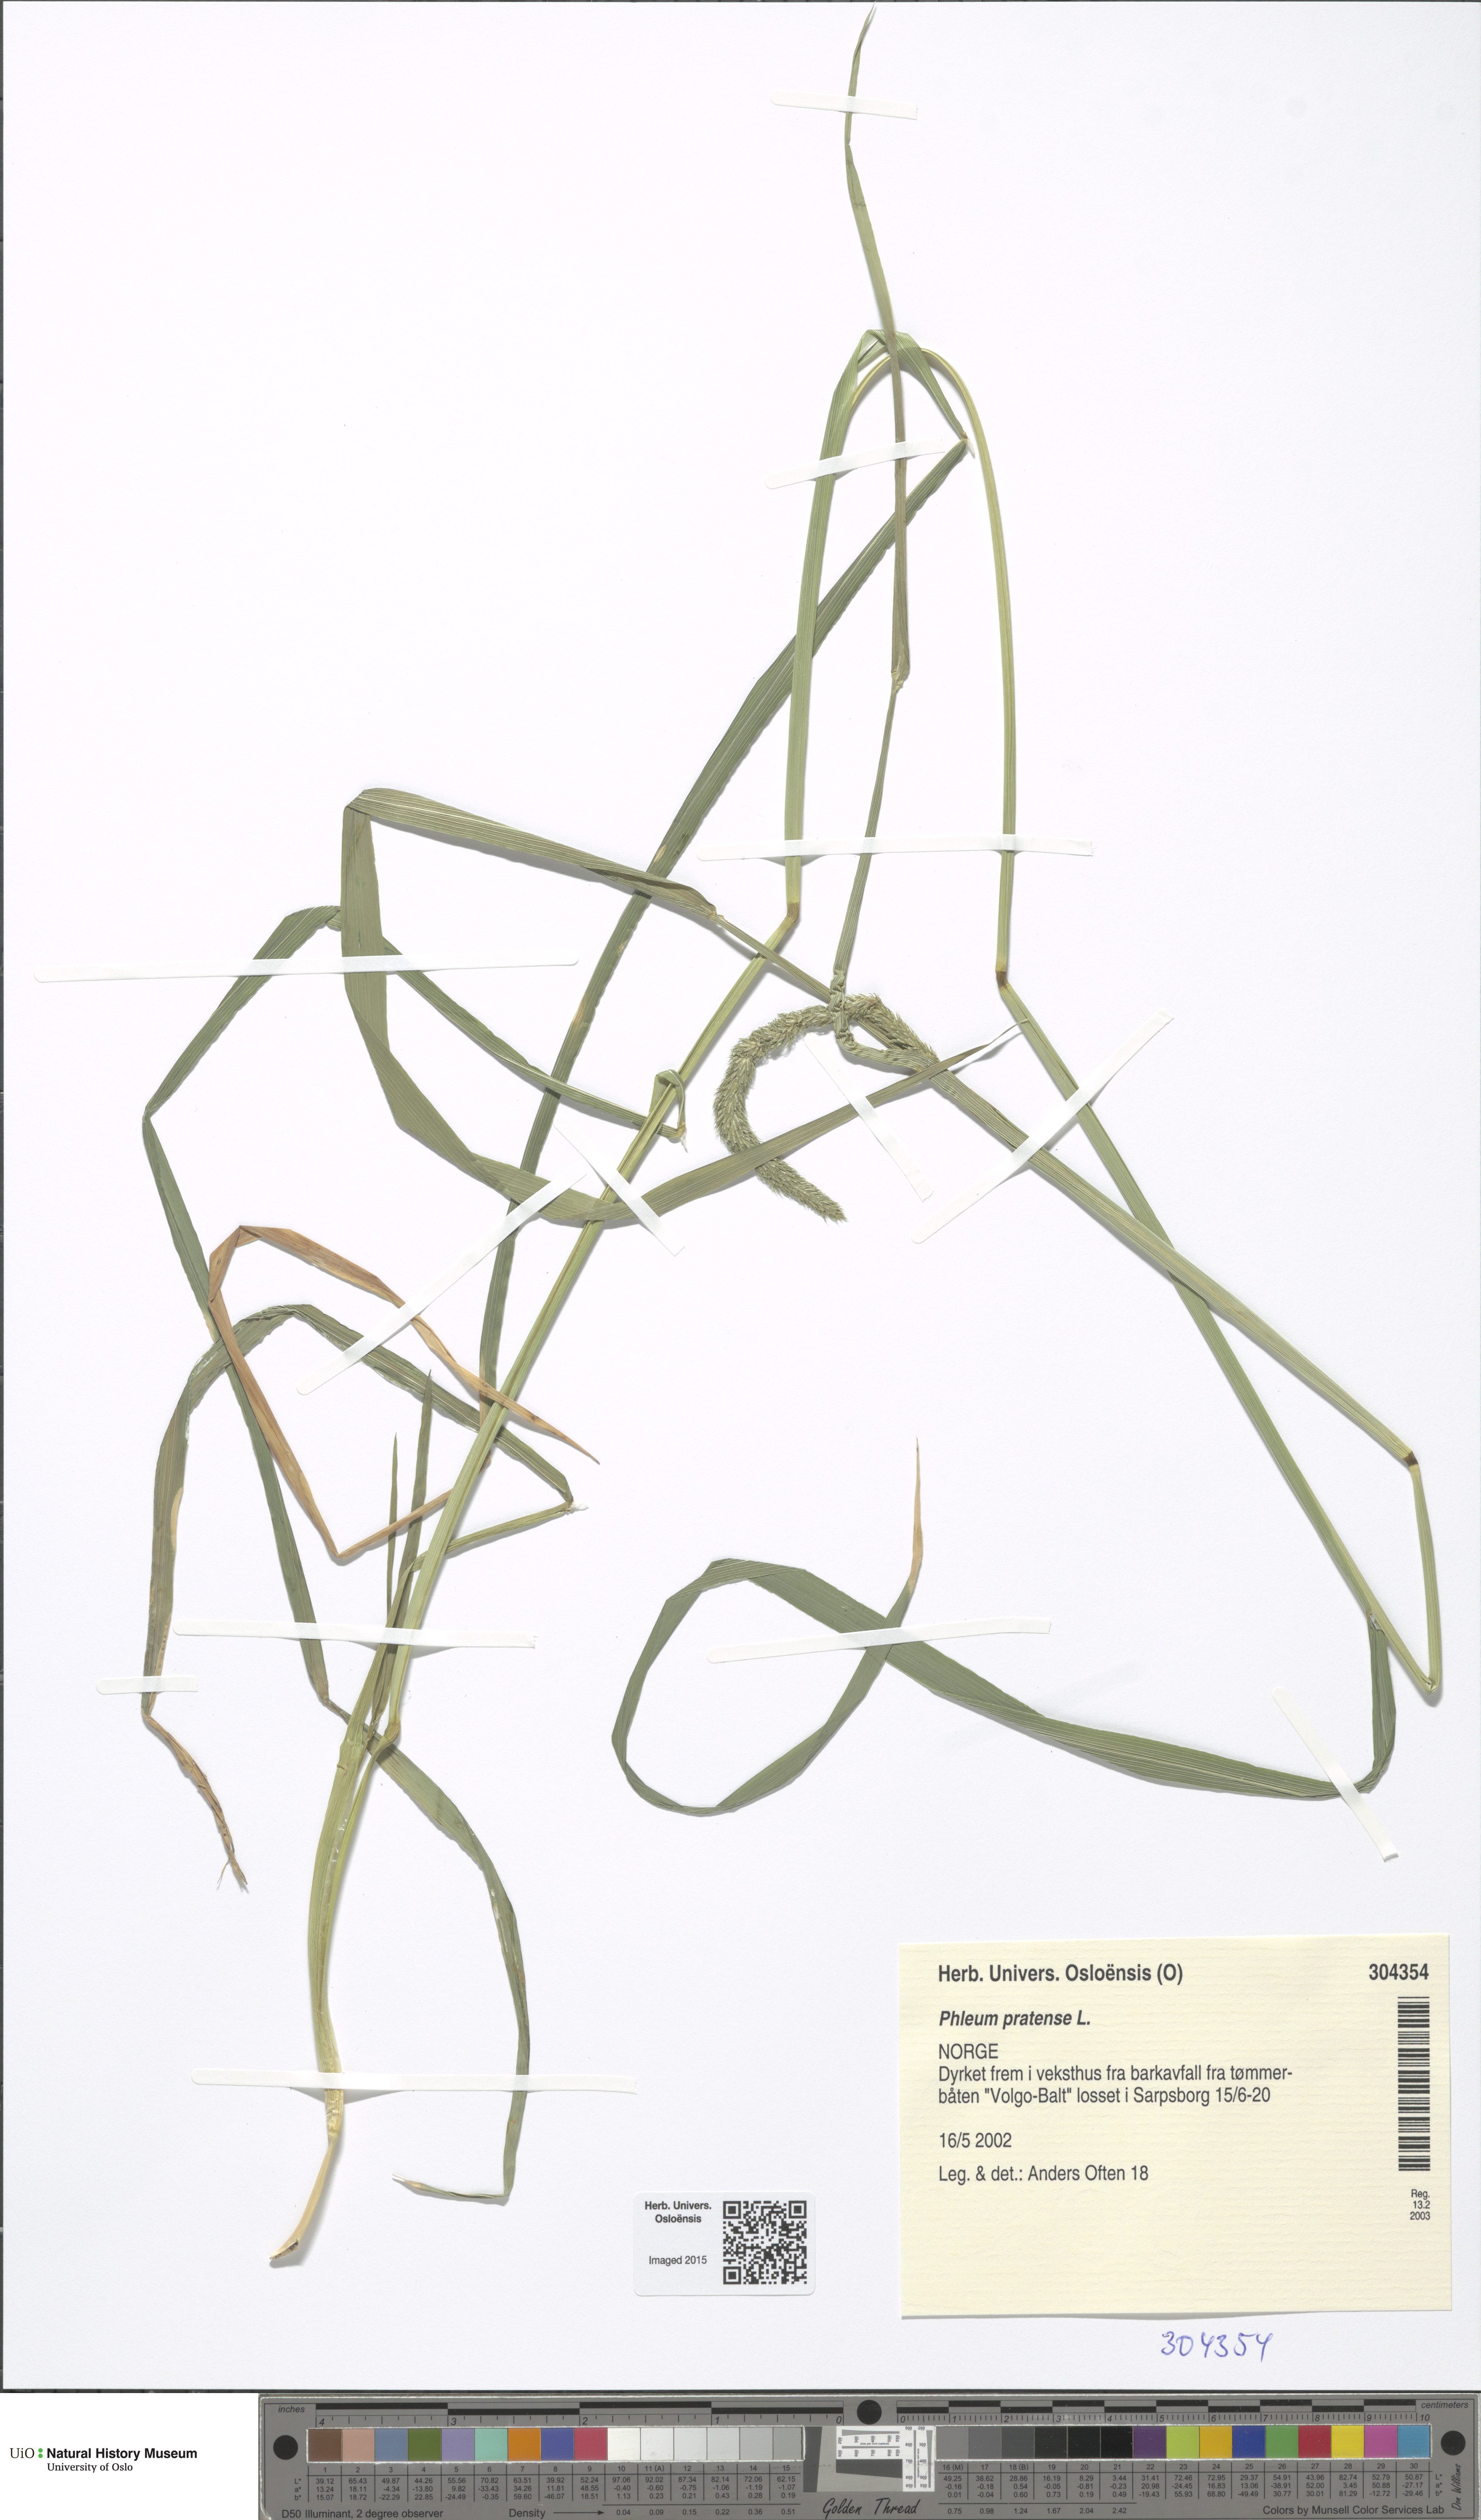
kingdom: Plantae
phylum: Tracheophyta
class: Liliopsida
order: Poales
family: Poaceae
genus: Phleum
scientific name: Phleum pratense
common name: Timothy grass
